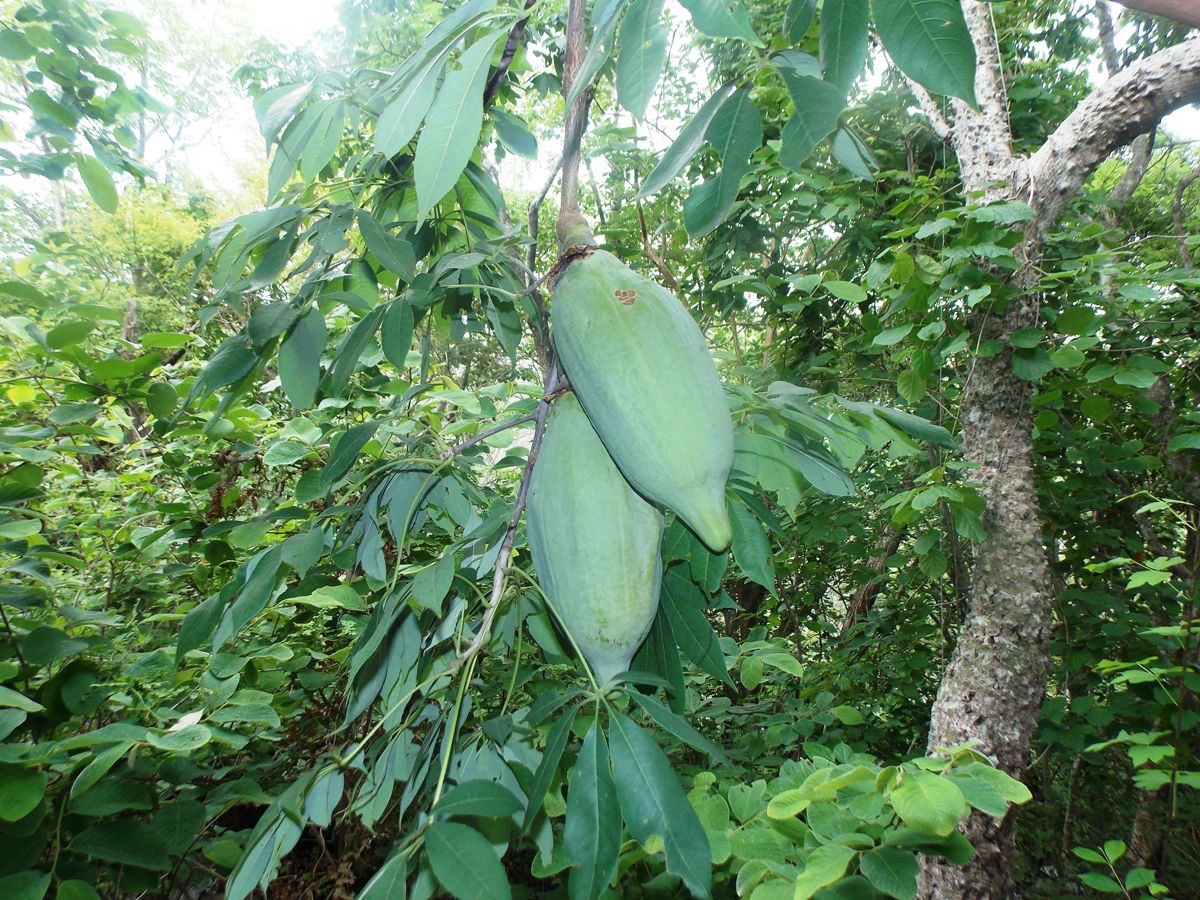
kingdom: Plantae
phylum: Tracheophyta
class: Magnoliopsida
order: Malvales
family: Malvaceae
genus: Ceiba
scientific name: Ceiba aesculifolia
